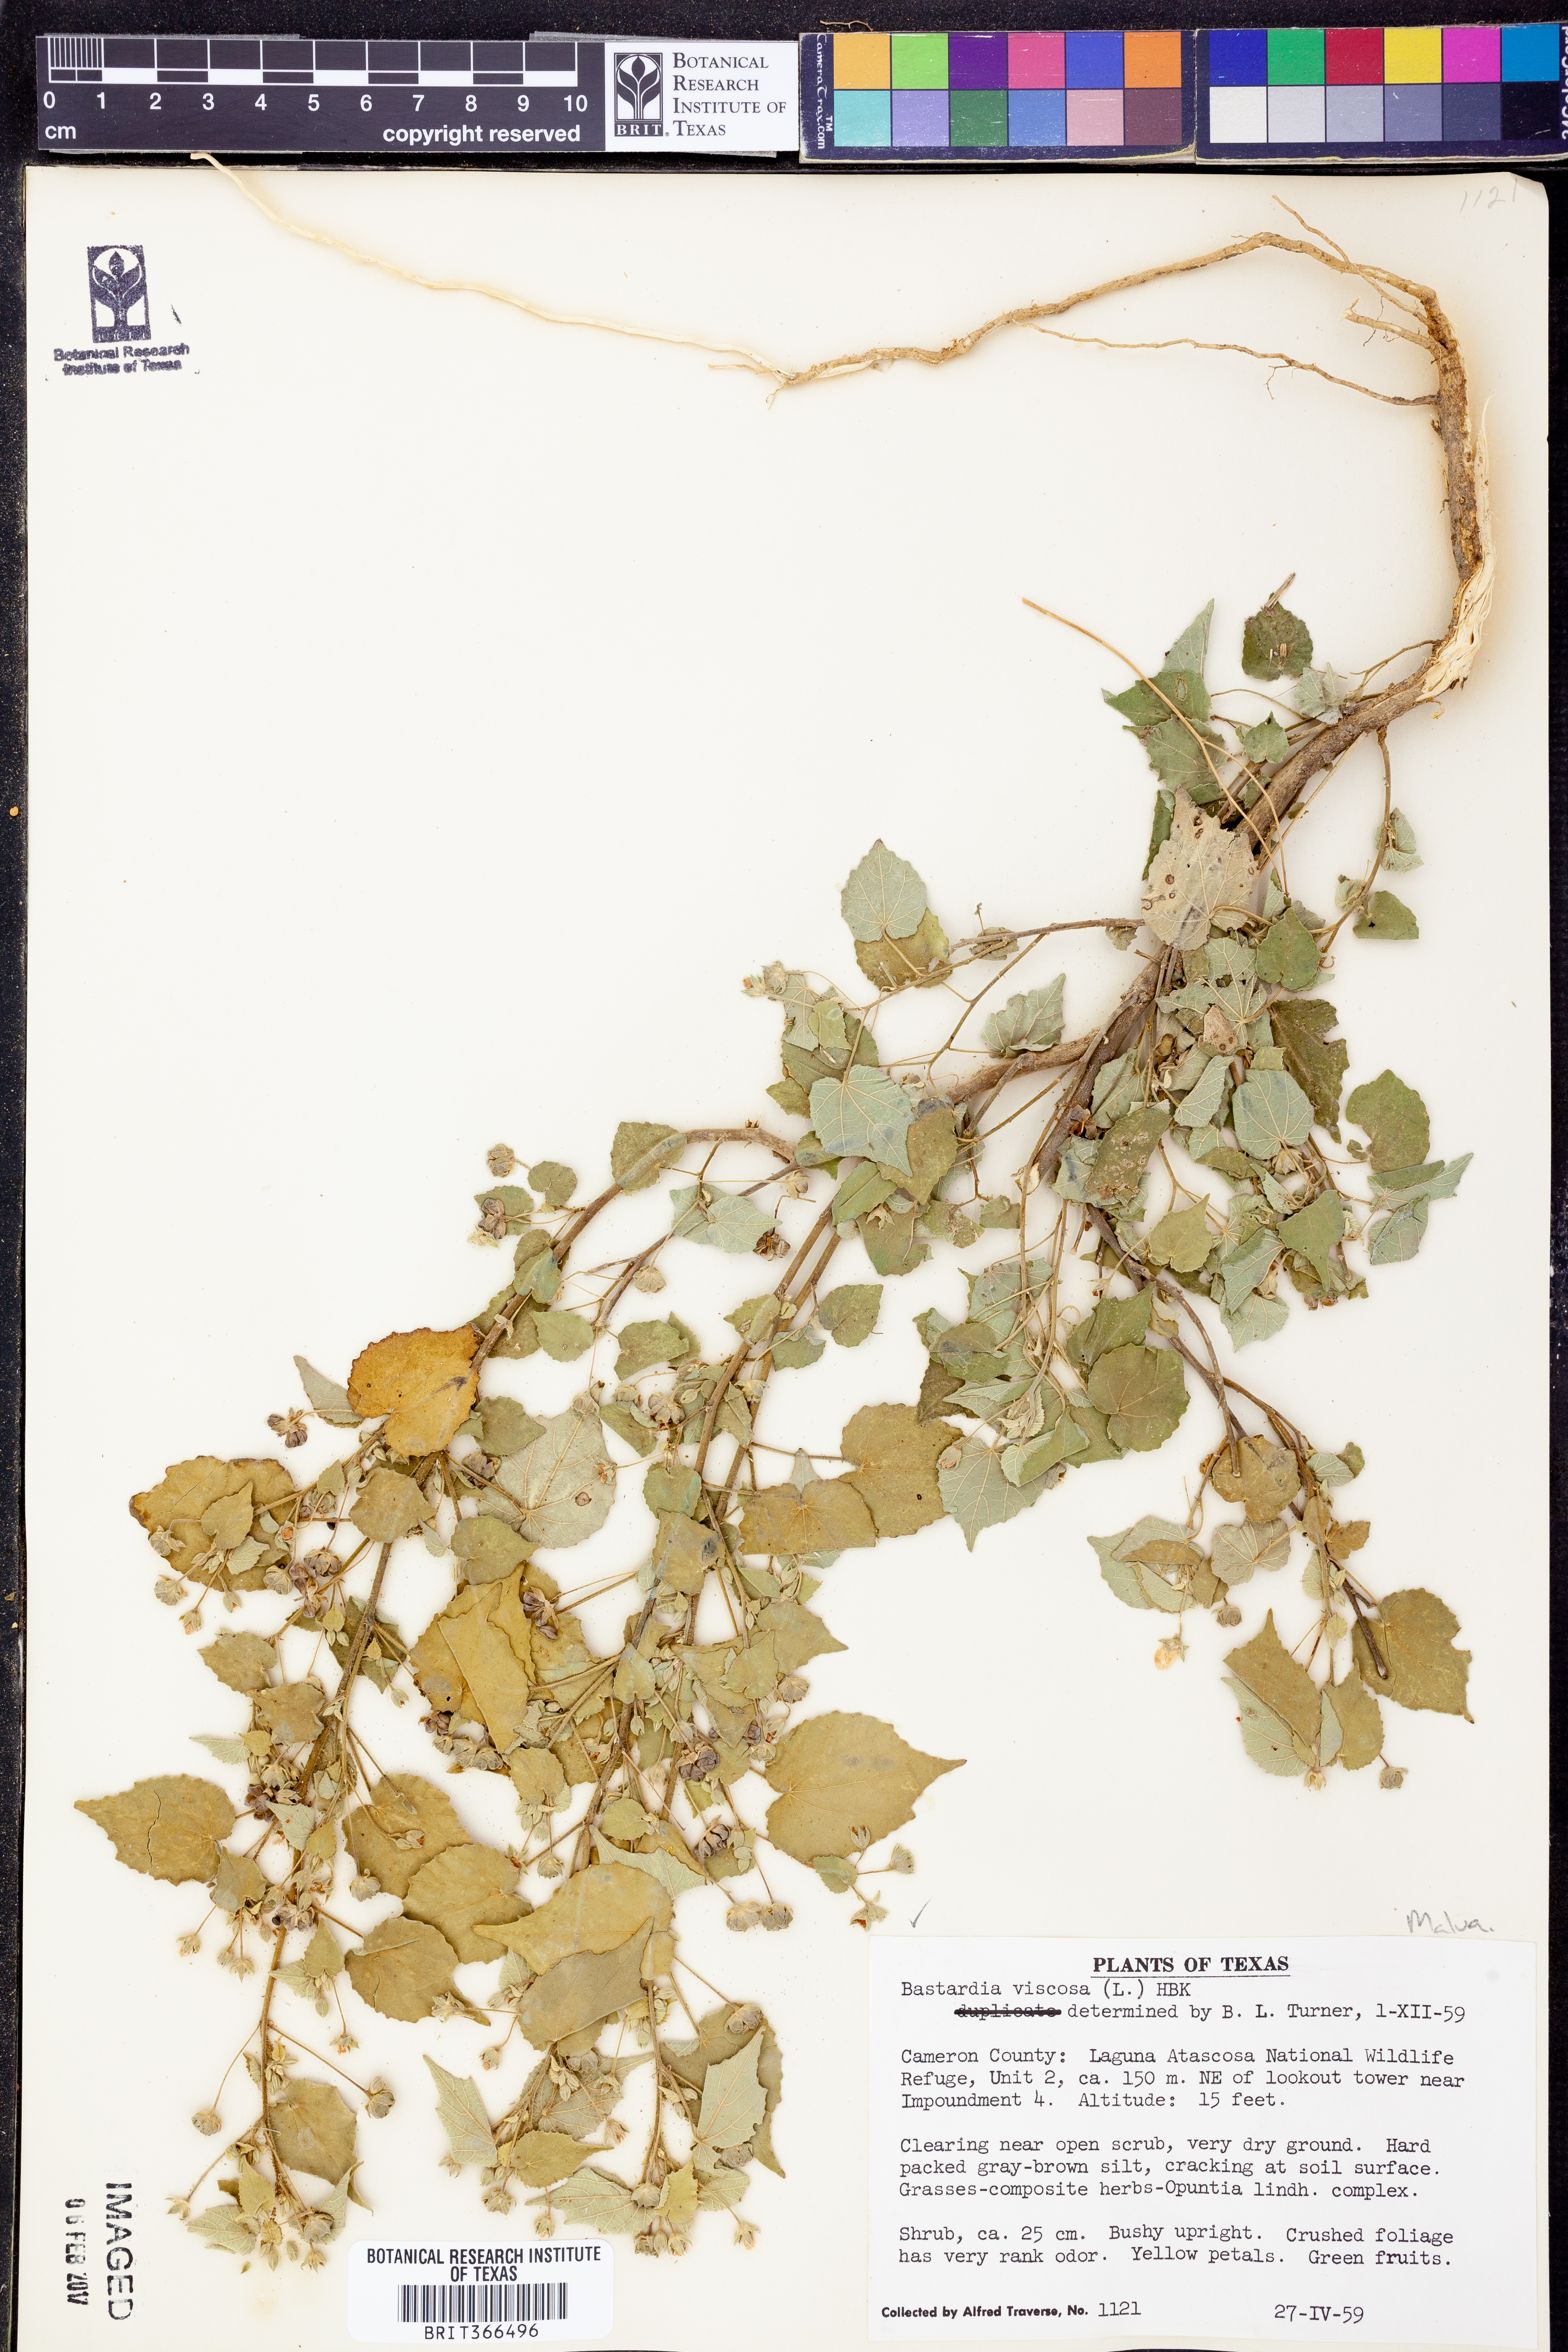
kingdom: Plantae
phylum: Tracheophyta
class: Magnoliopsida
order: Malvales
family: Malvaceae
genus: Abutilon
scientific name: Abutilon viscosum
